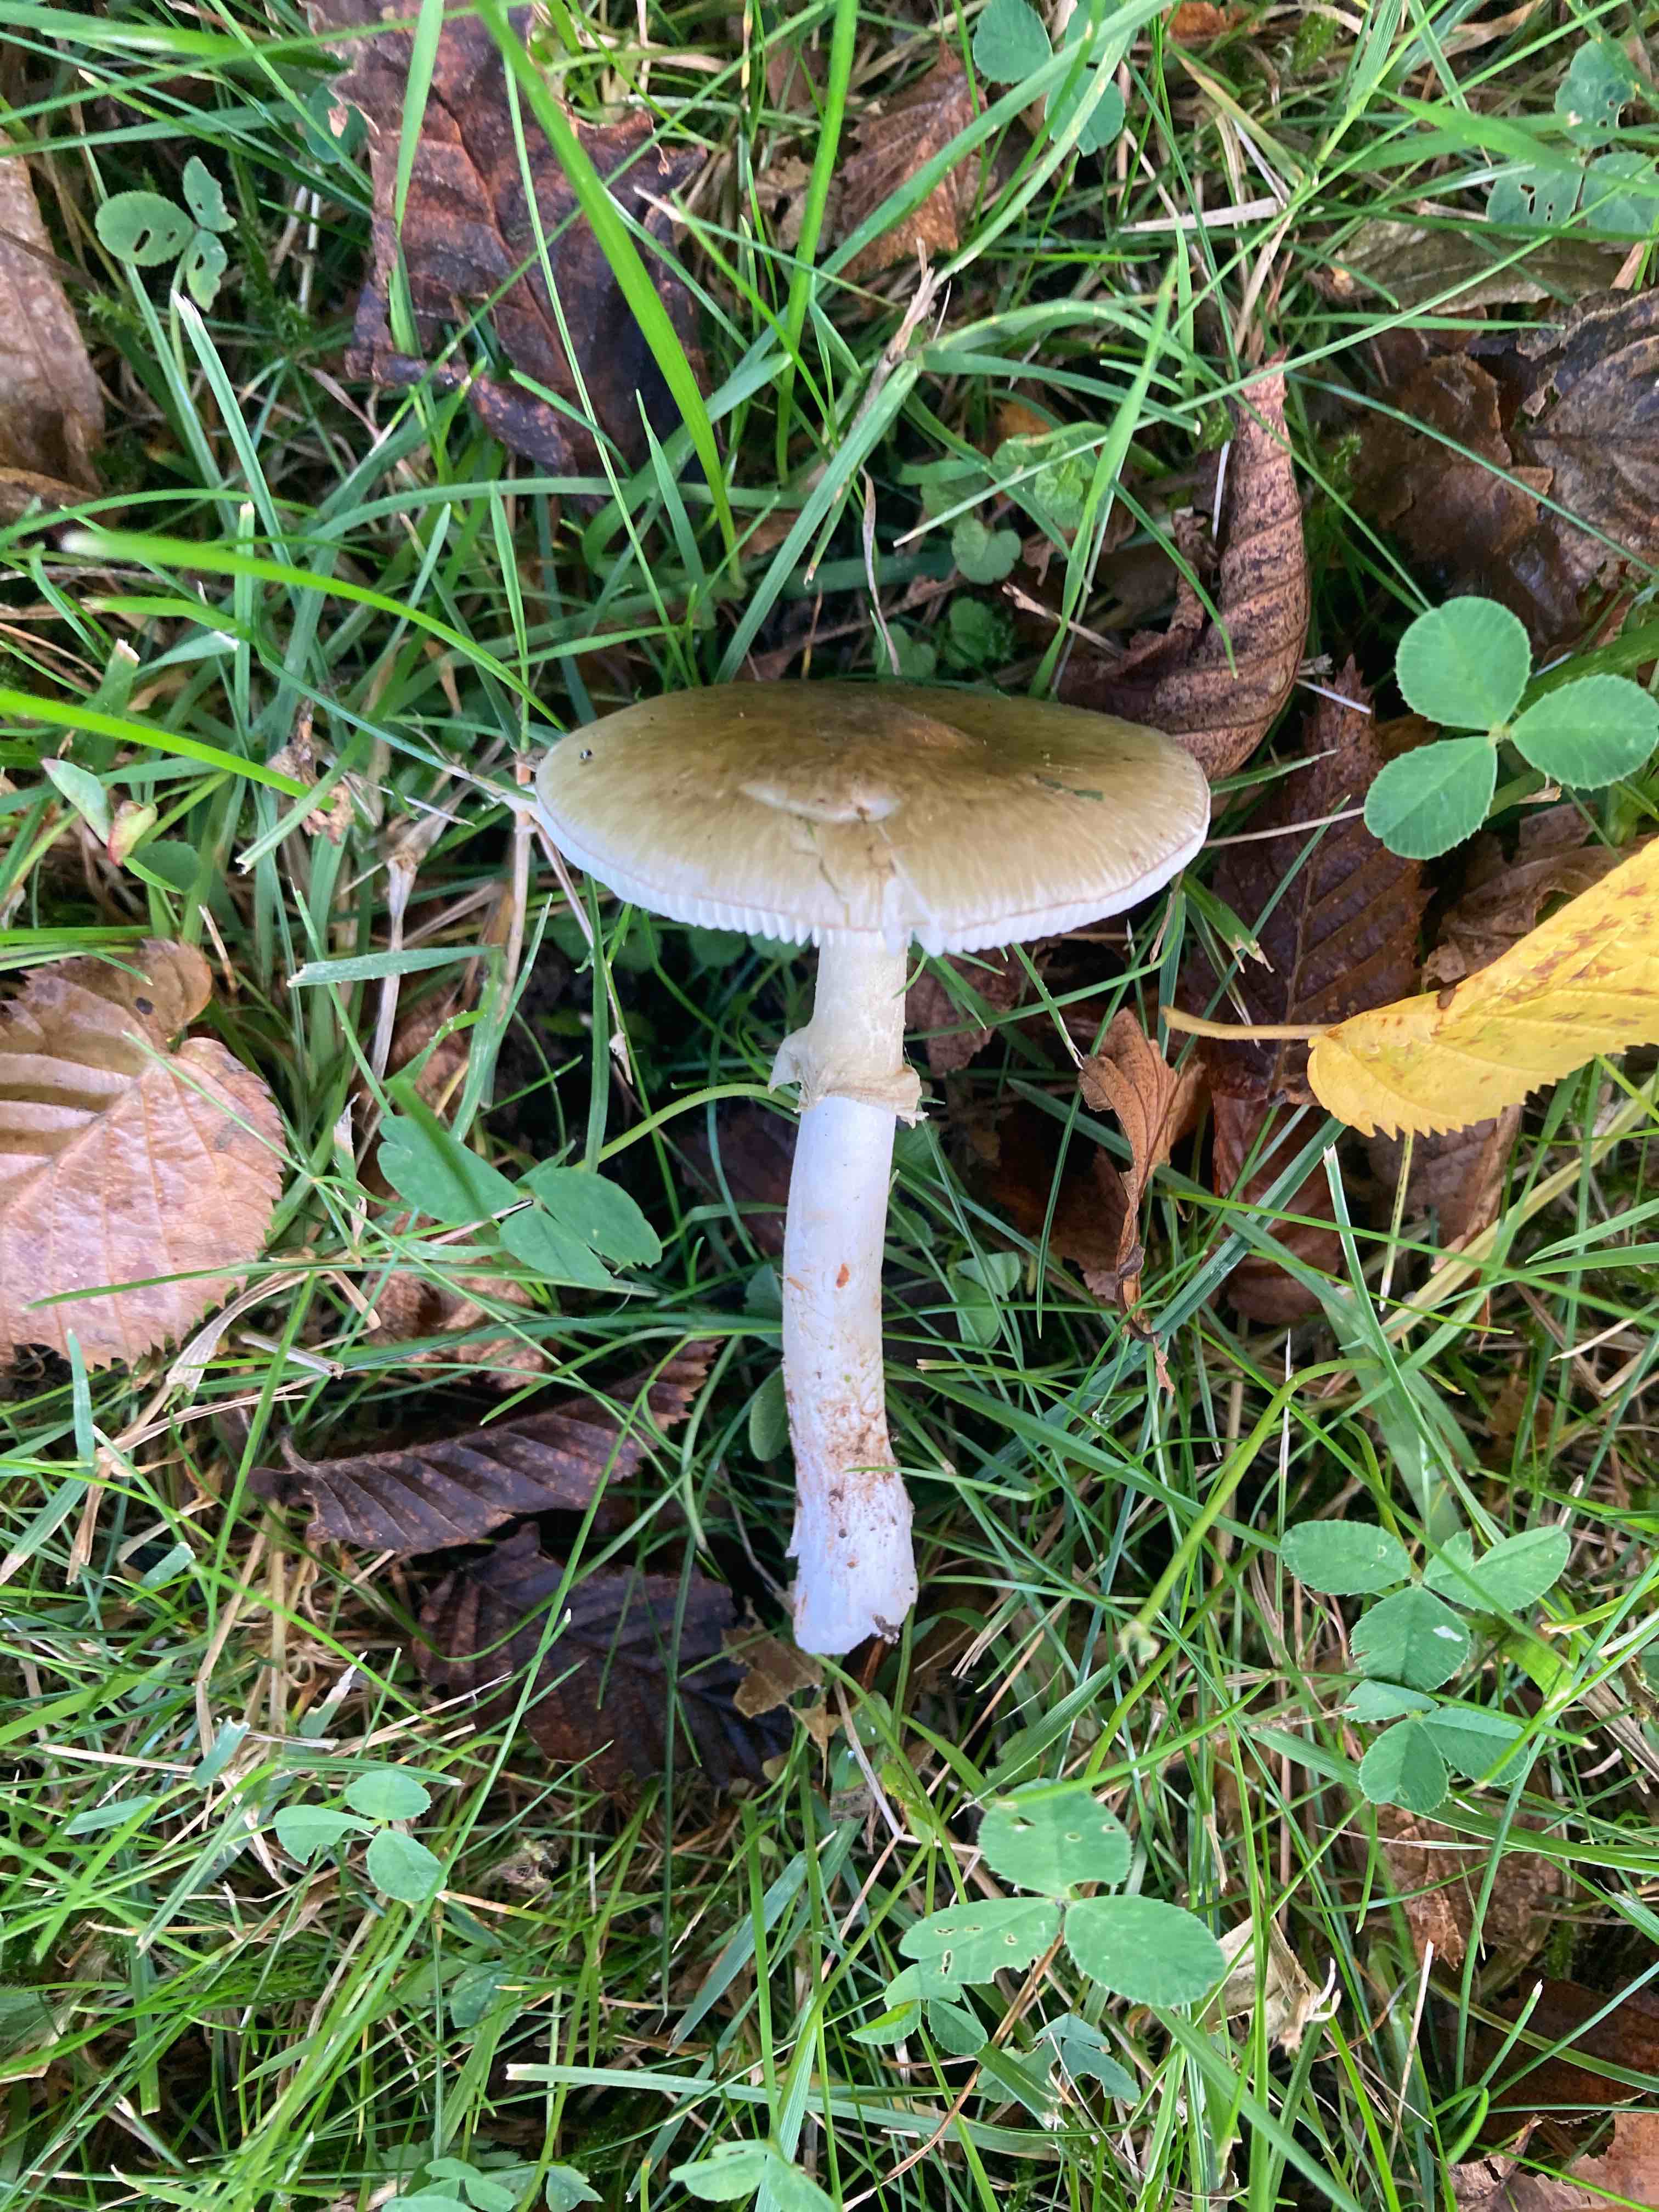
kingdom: Fungi
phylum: Basidiomycota
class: Agaricomycetes
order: Agaricales
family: Amanitaceae
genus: Amanita
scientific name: Amanita phalloides
